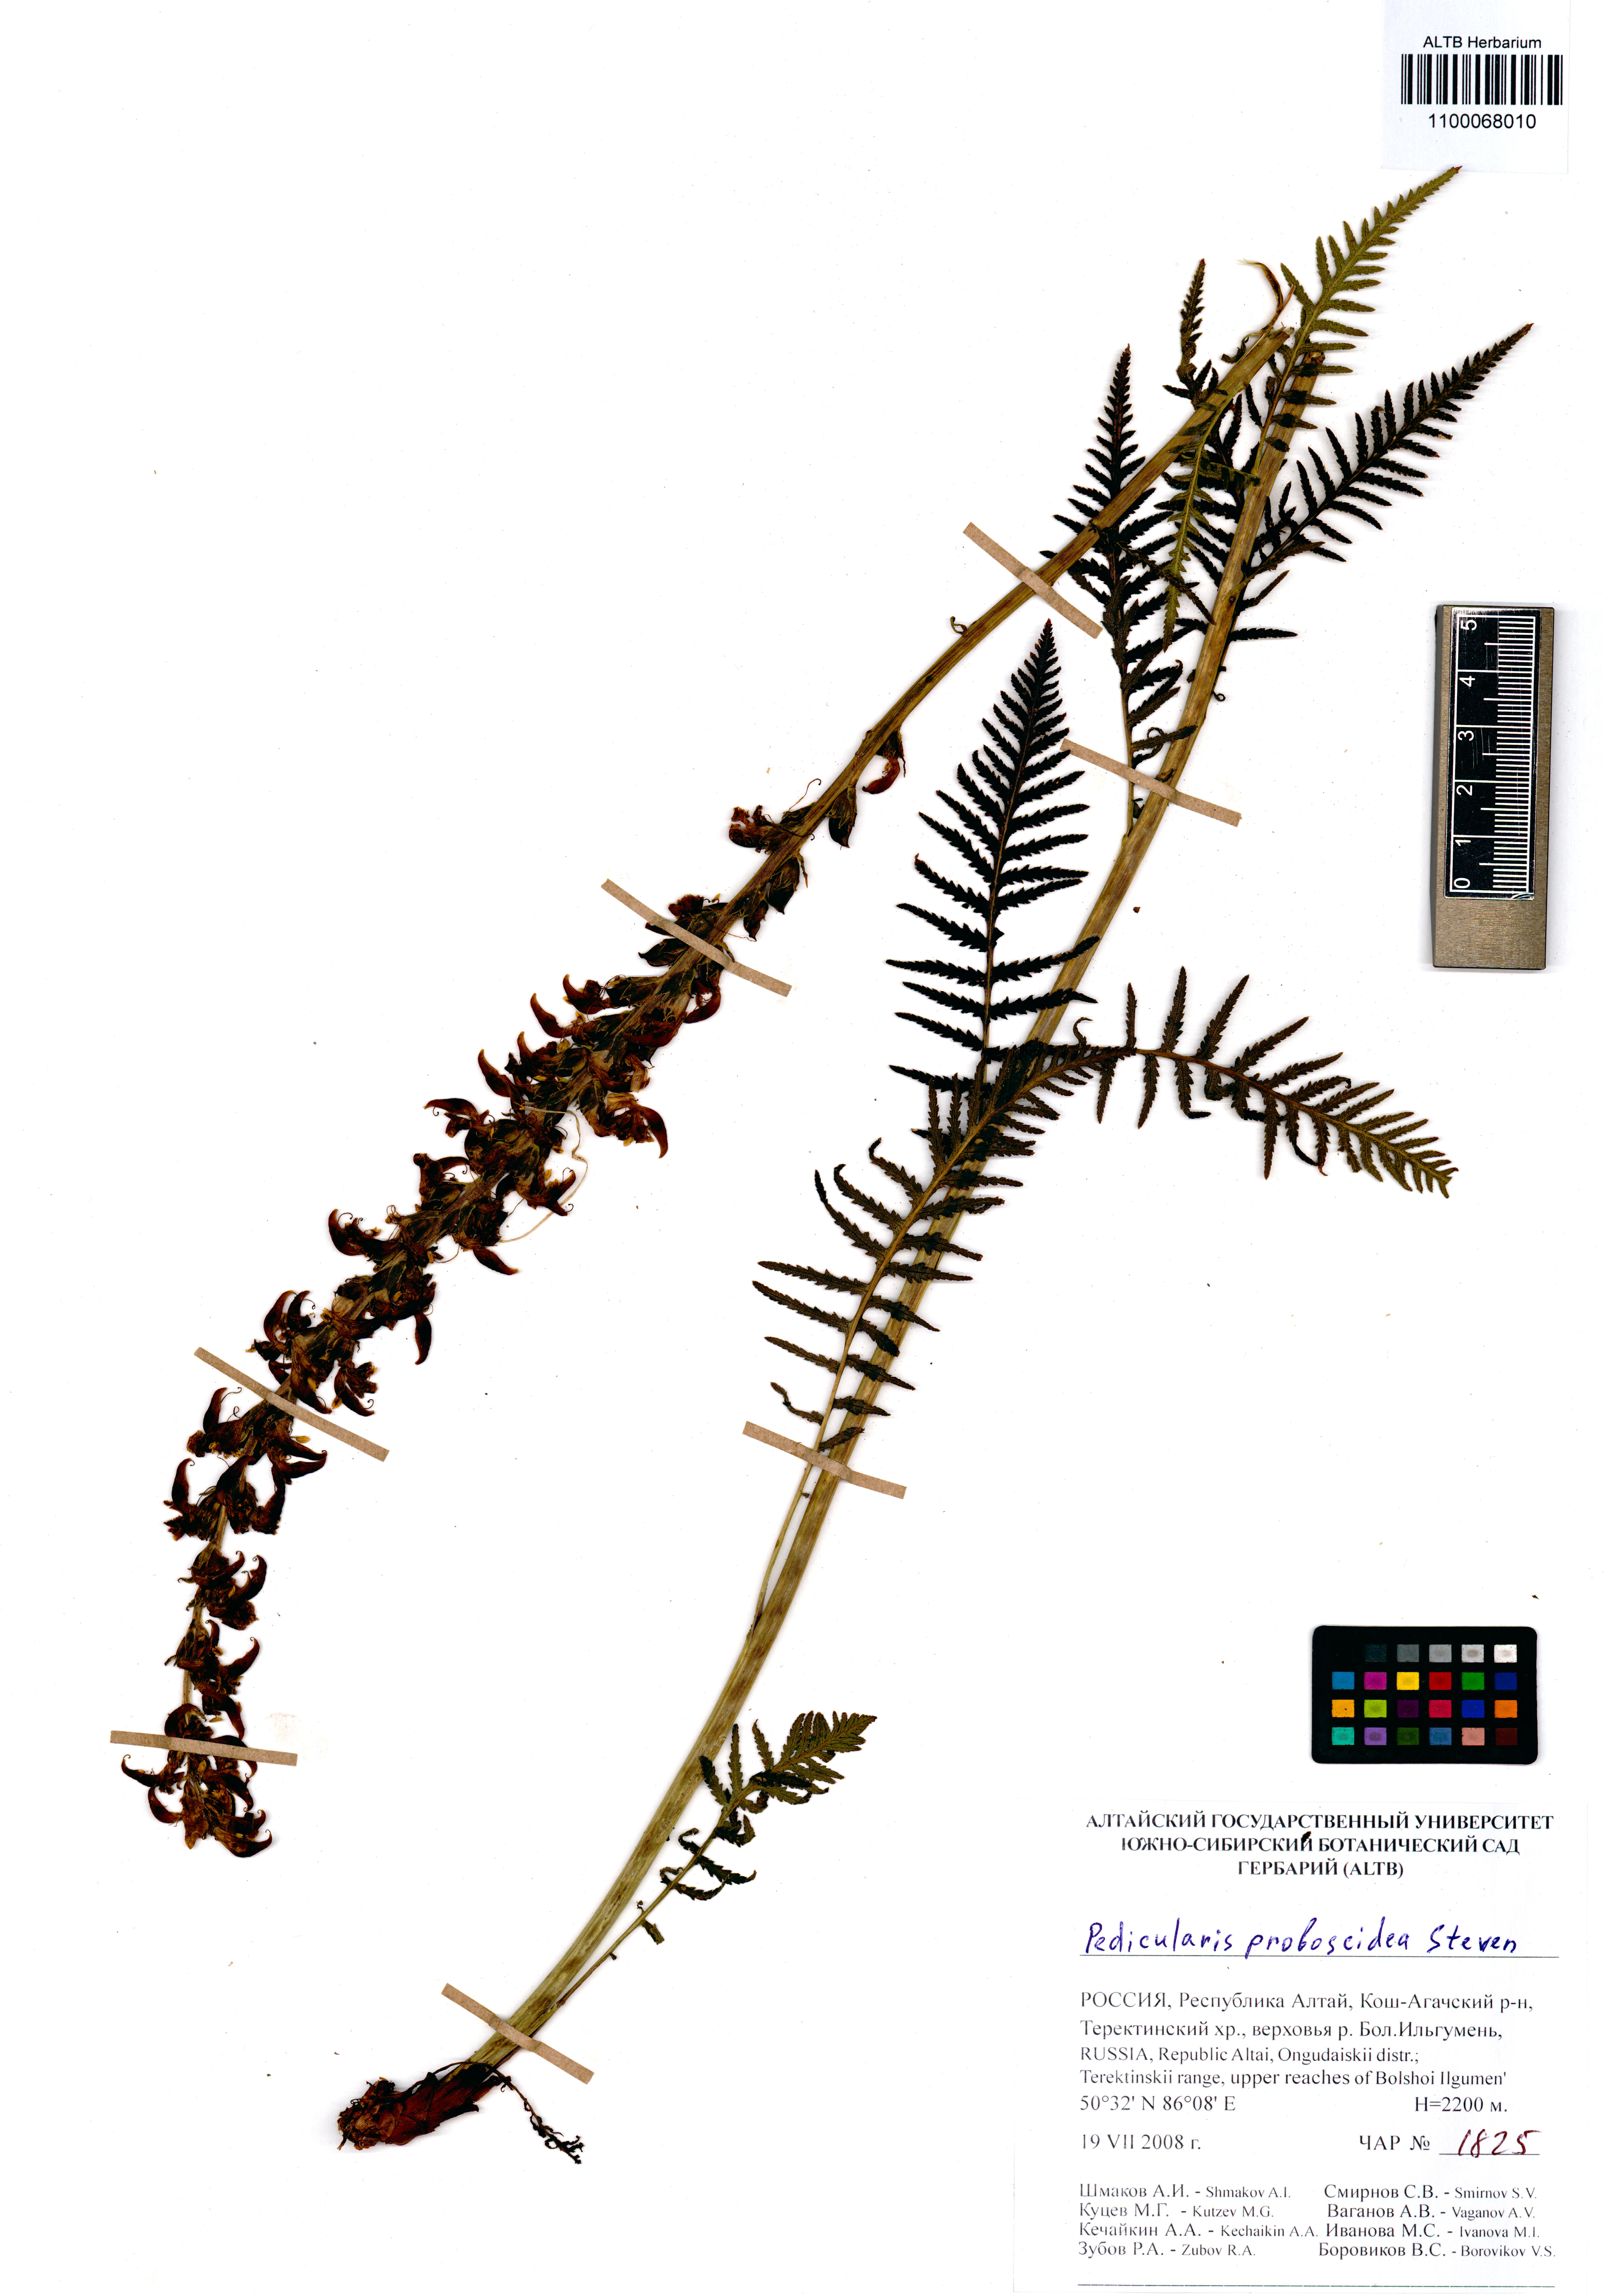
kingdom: Plantae
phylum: Tracheophyta
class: Magnoliopsida
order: Lamiales
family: Orobanchaceae
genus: Pedicularis
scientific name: Pedicularis cenisia
